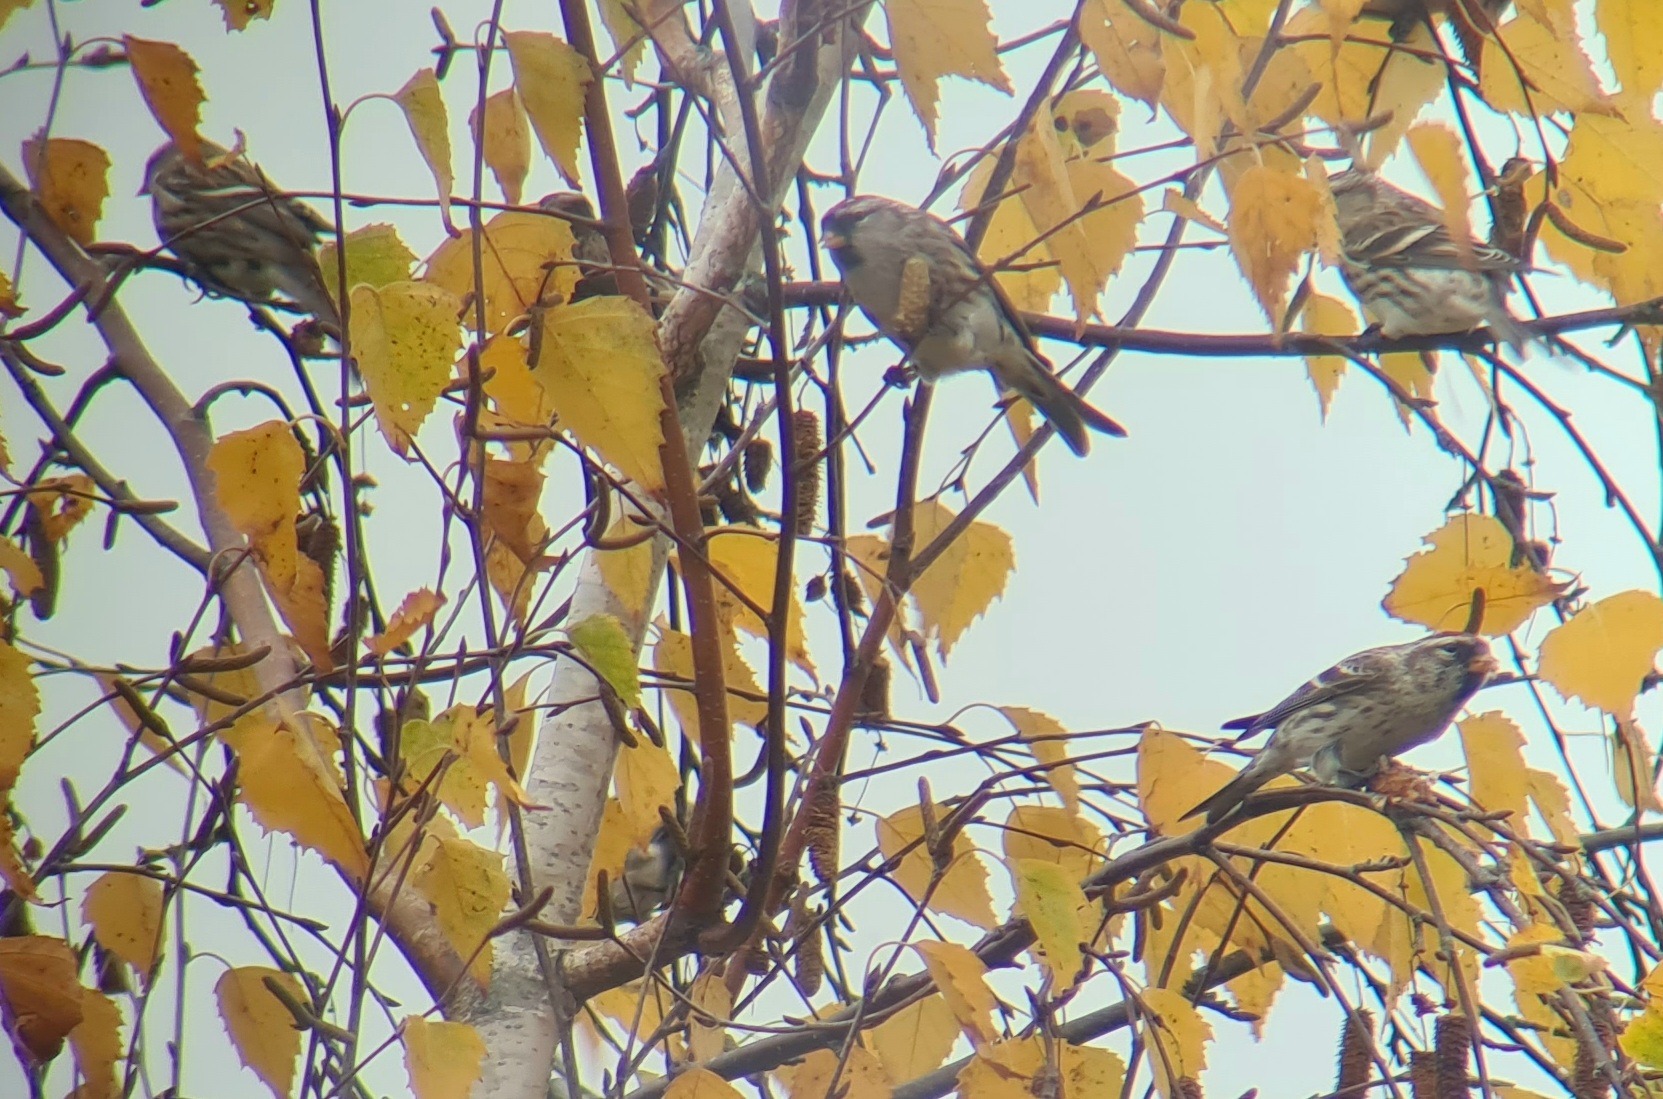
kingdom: Animalia
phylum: Chordata
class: Aves
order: Passeriformes
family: Fringillidae
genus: Acanthis
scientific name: Acanthis flammea
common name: Nordlig gråsisken
